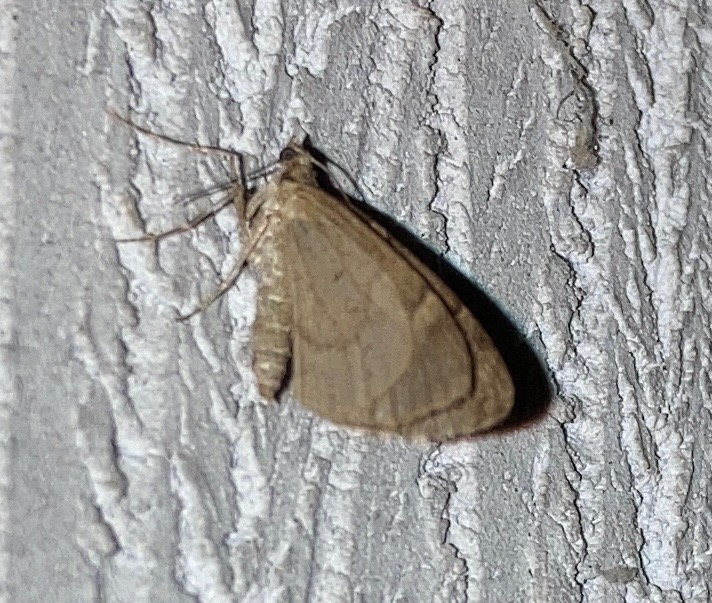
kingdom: Animalia
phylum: Arthropoda
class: Insecta
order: Lepidoptera
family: Geometridae
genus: Thera
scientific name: Thera obeliscata
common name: Grå fyrremåler
